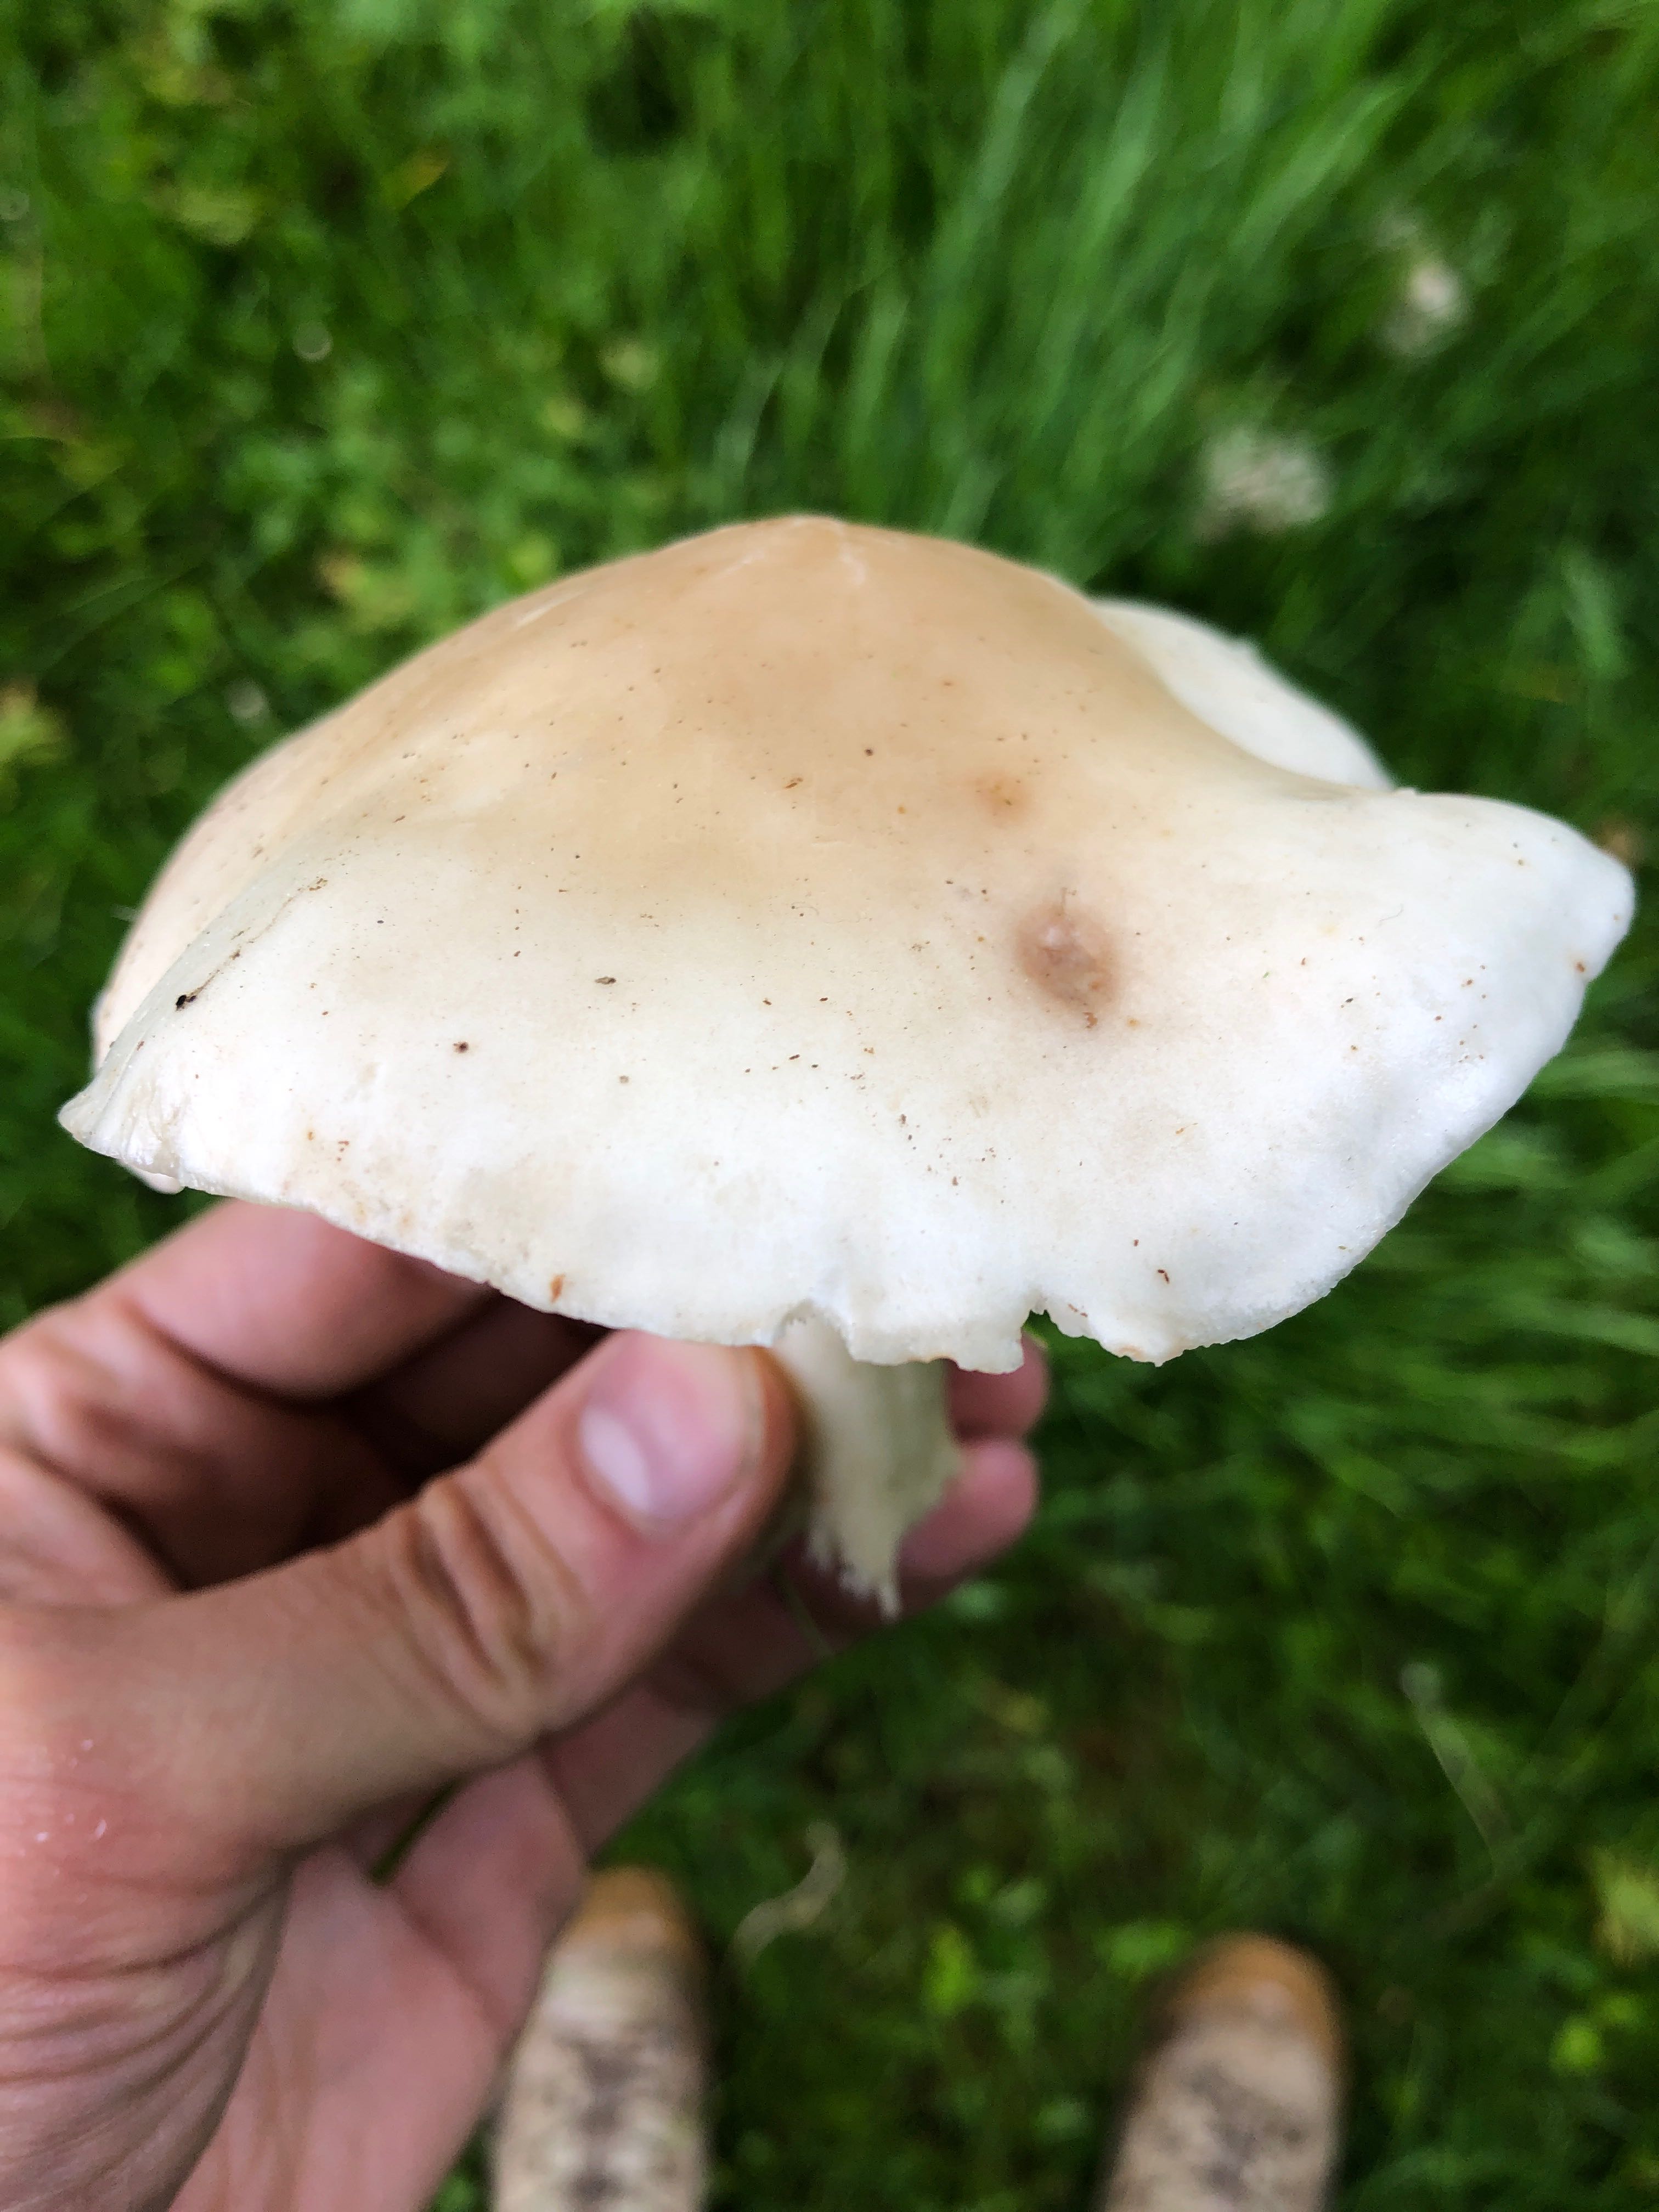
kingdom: Fungi
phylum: Basidiomycota
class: Agaricomycetes
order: Agaricales
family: Lyophyllaceae
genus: Calocybe
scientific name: Calocybe gambosa
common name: vårmusseron
